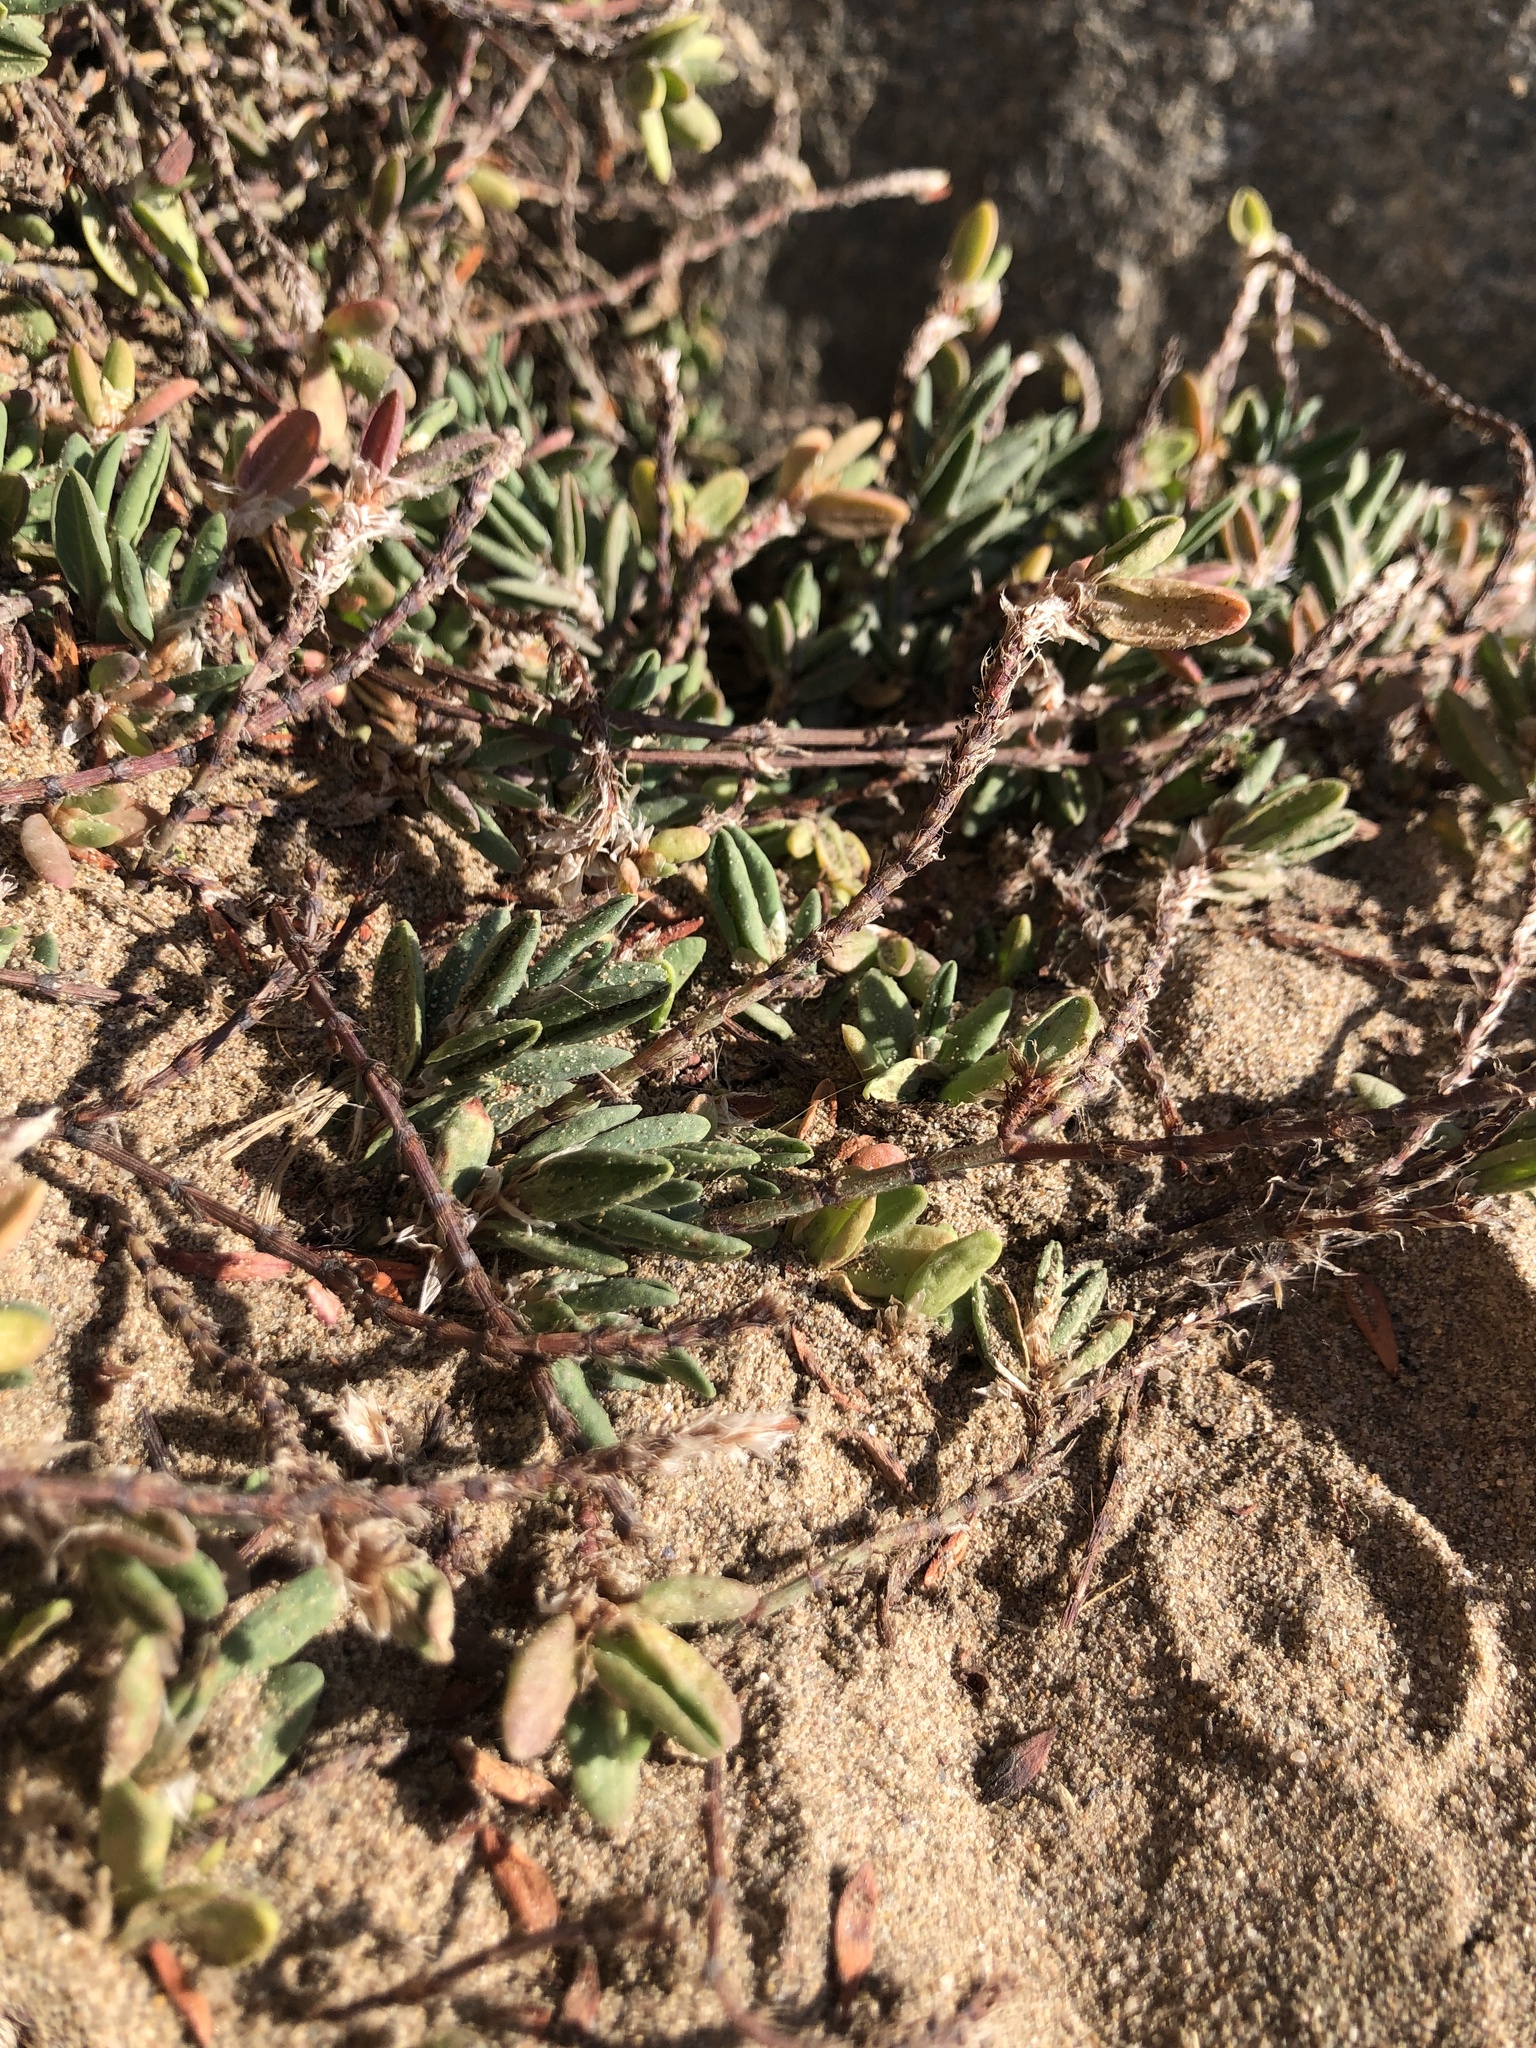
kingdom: Plantae
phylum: Tracheophyta
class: Magnoliopsida
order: Caryophyllales
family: Polygonaceae
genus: Polygonum
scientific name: Polygonum maritimum
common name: Sea knotgrass
